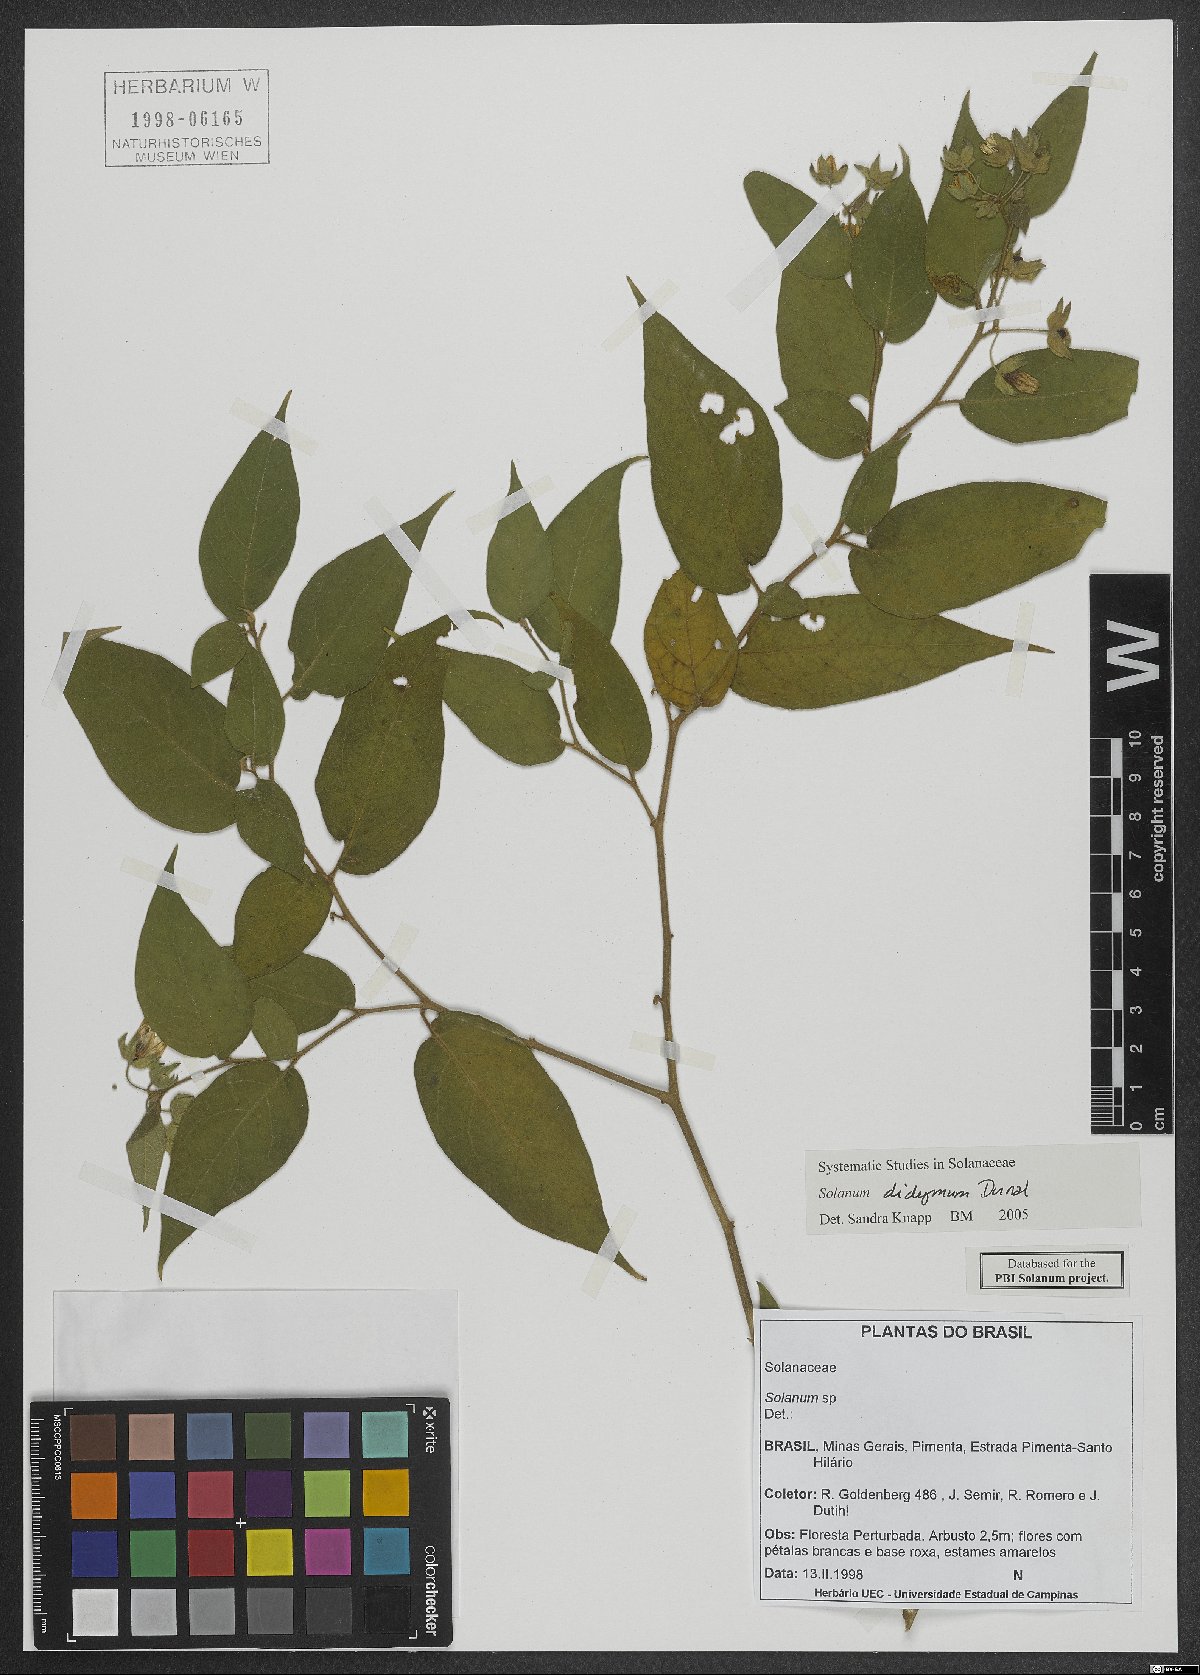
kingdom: Plantae
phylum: Tracheophyta
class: Magnoliopsida
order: Solanales
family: Solanaceae
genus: Solanum
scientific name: Solanum didymum
